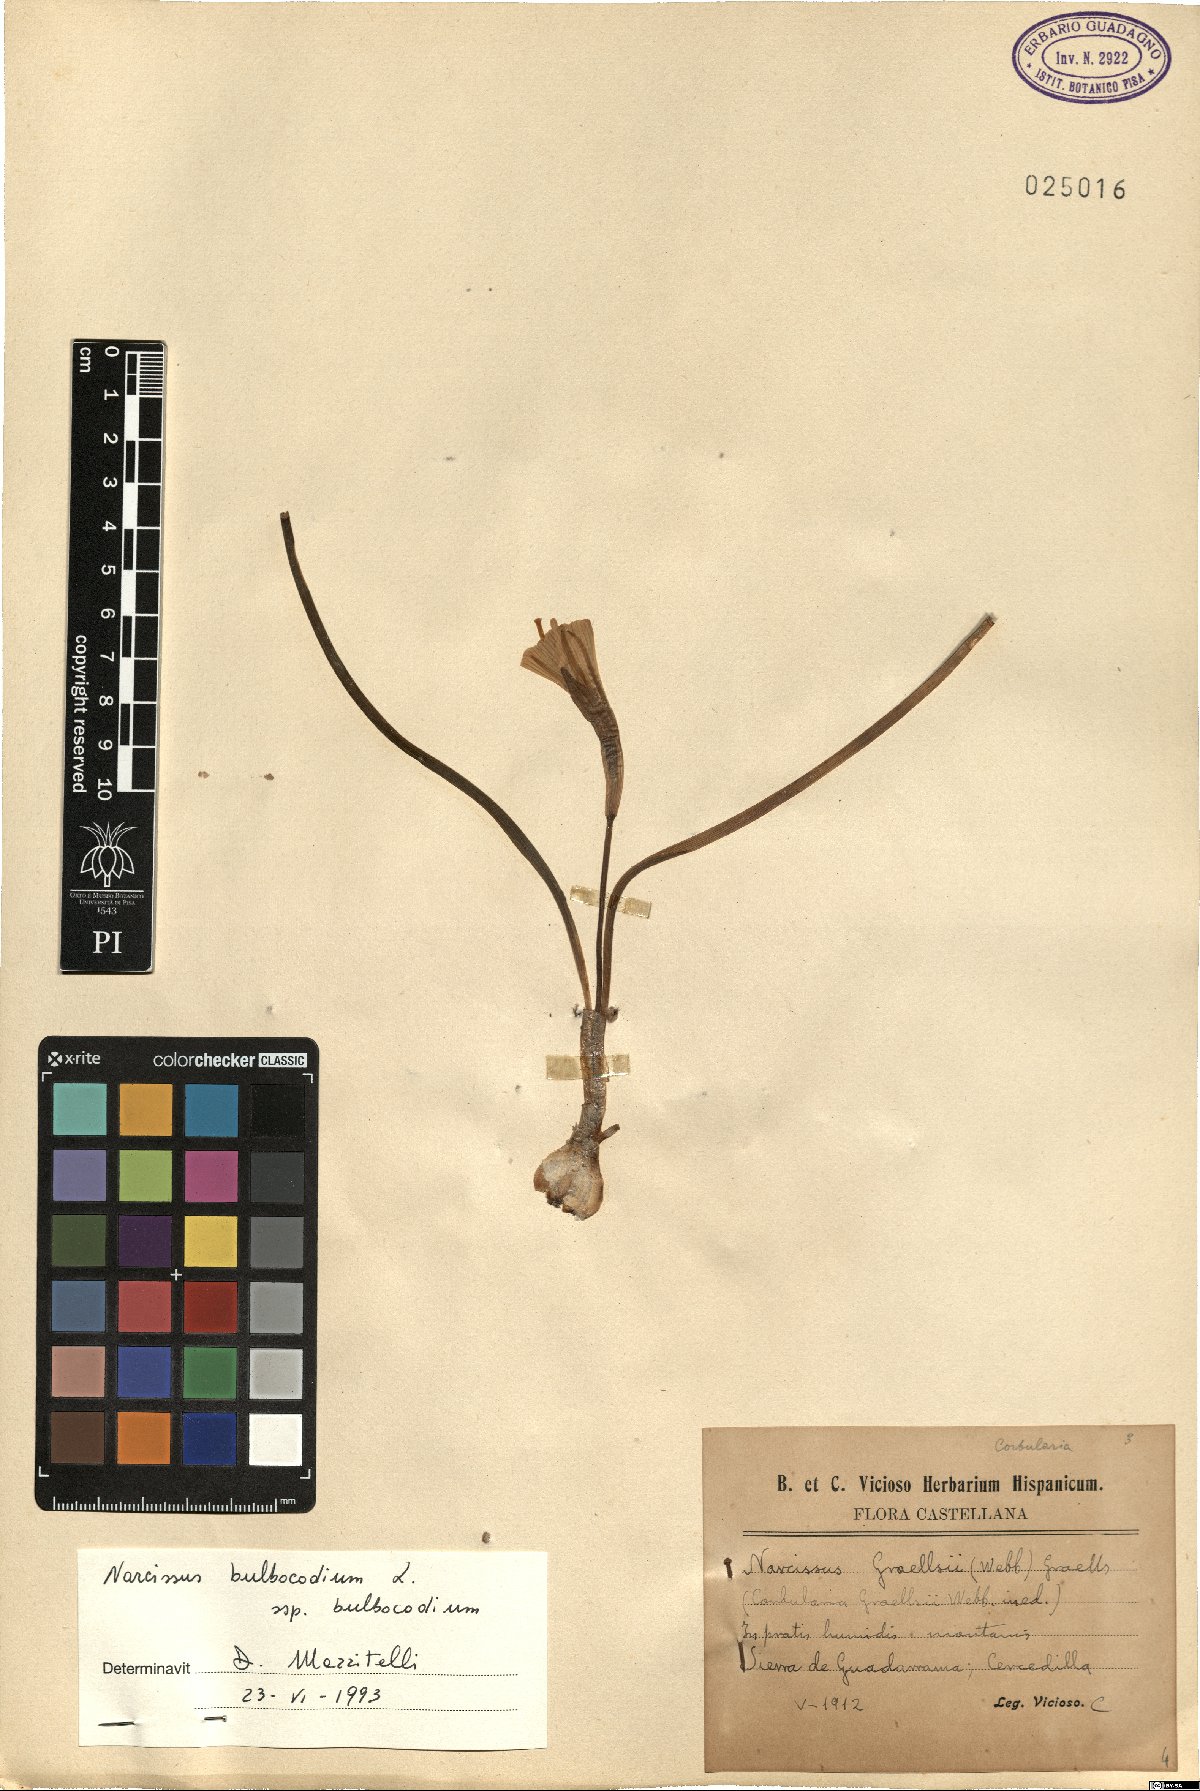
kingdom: Plantae
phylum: Tracheophyta
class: Liliopsida
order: Asparagales
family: Amaryllidaceae
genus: Narcissus
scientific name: Narcissus bulbocodium
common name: Hoop-petticoat daffodil
